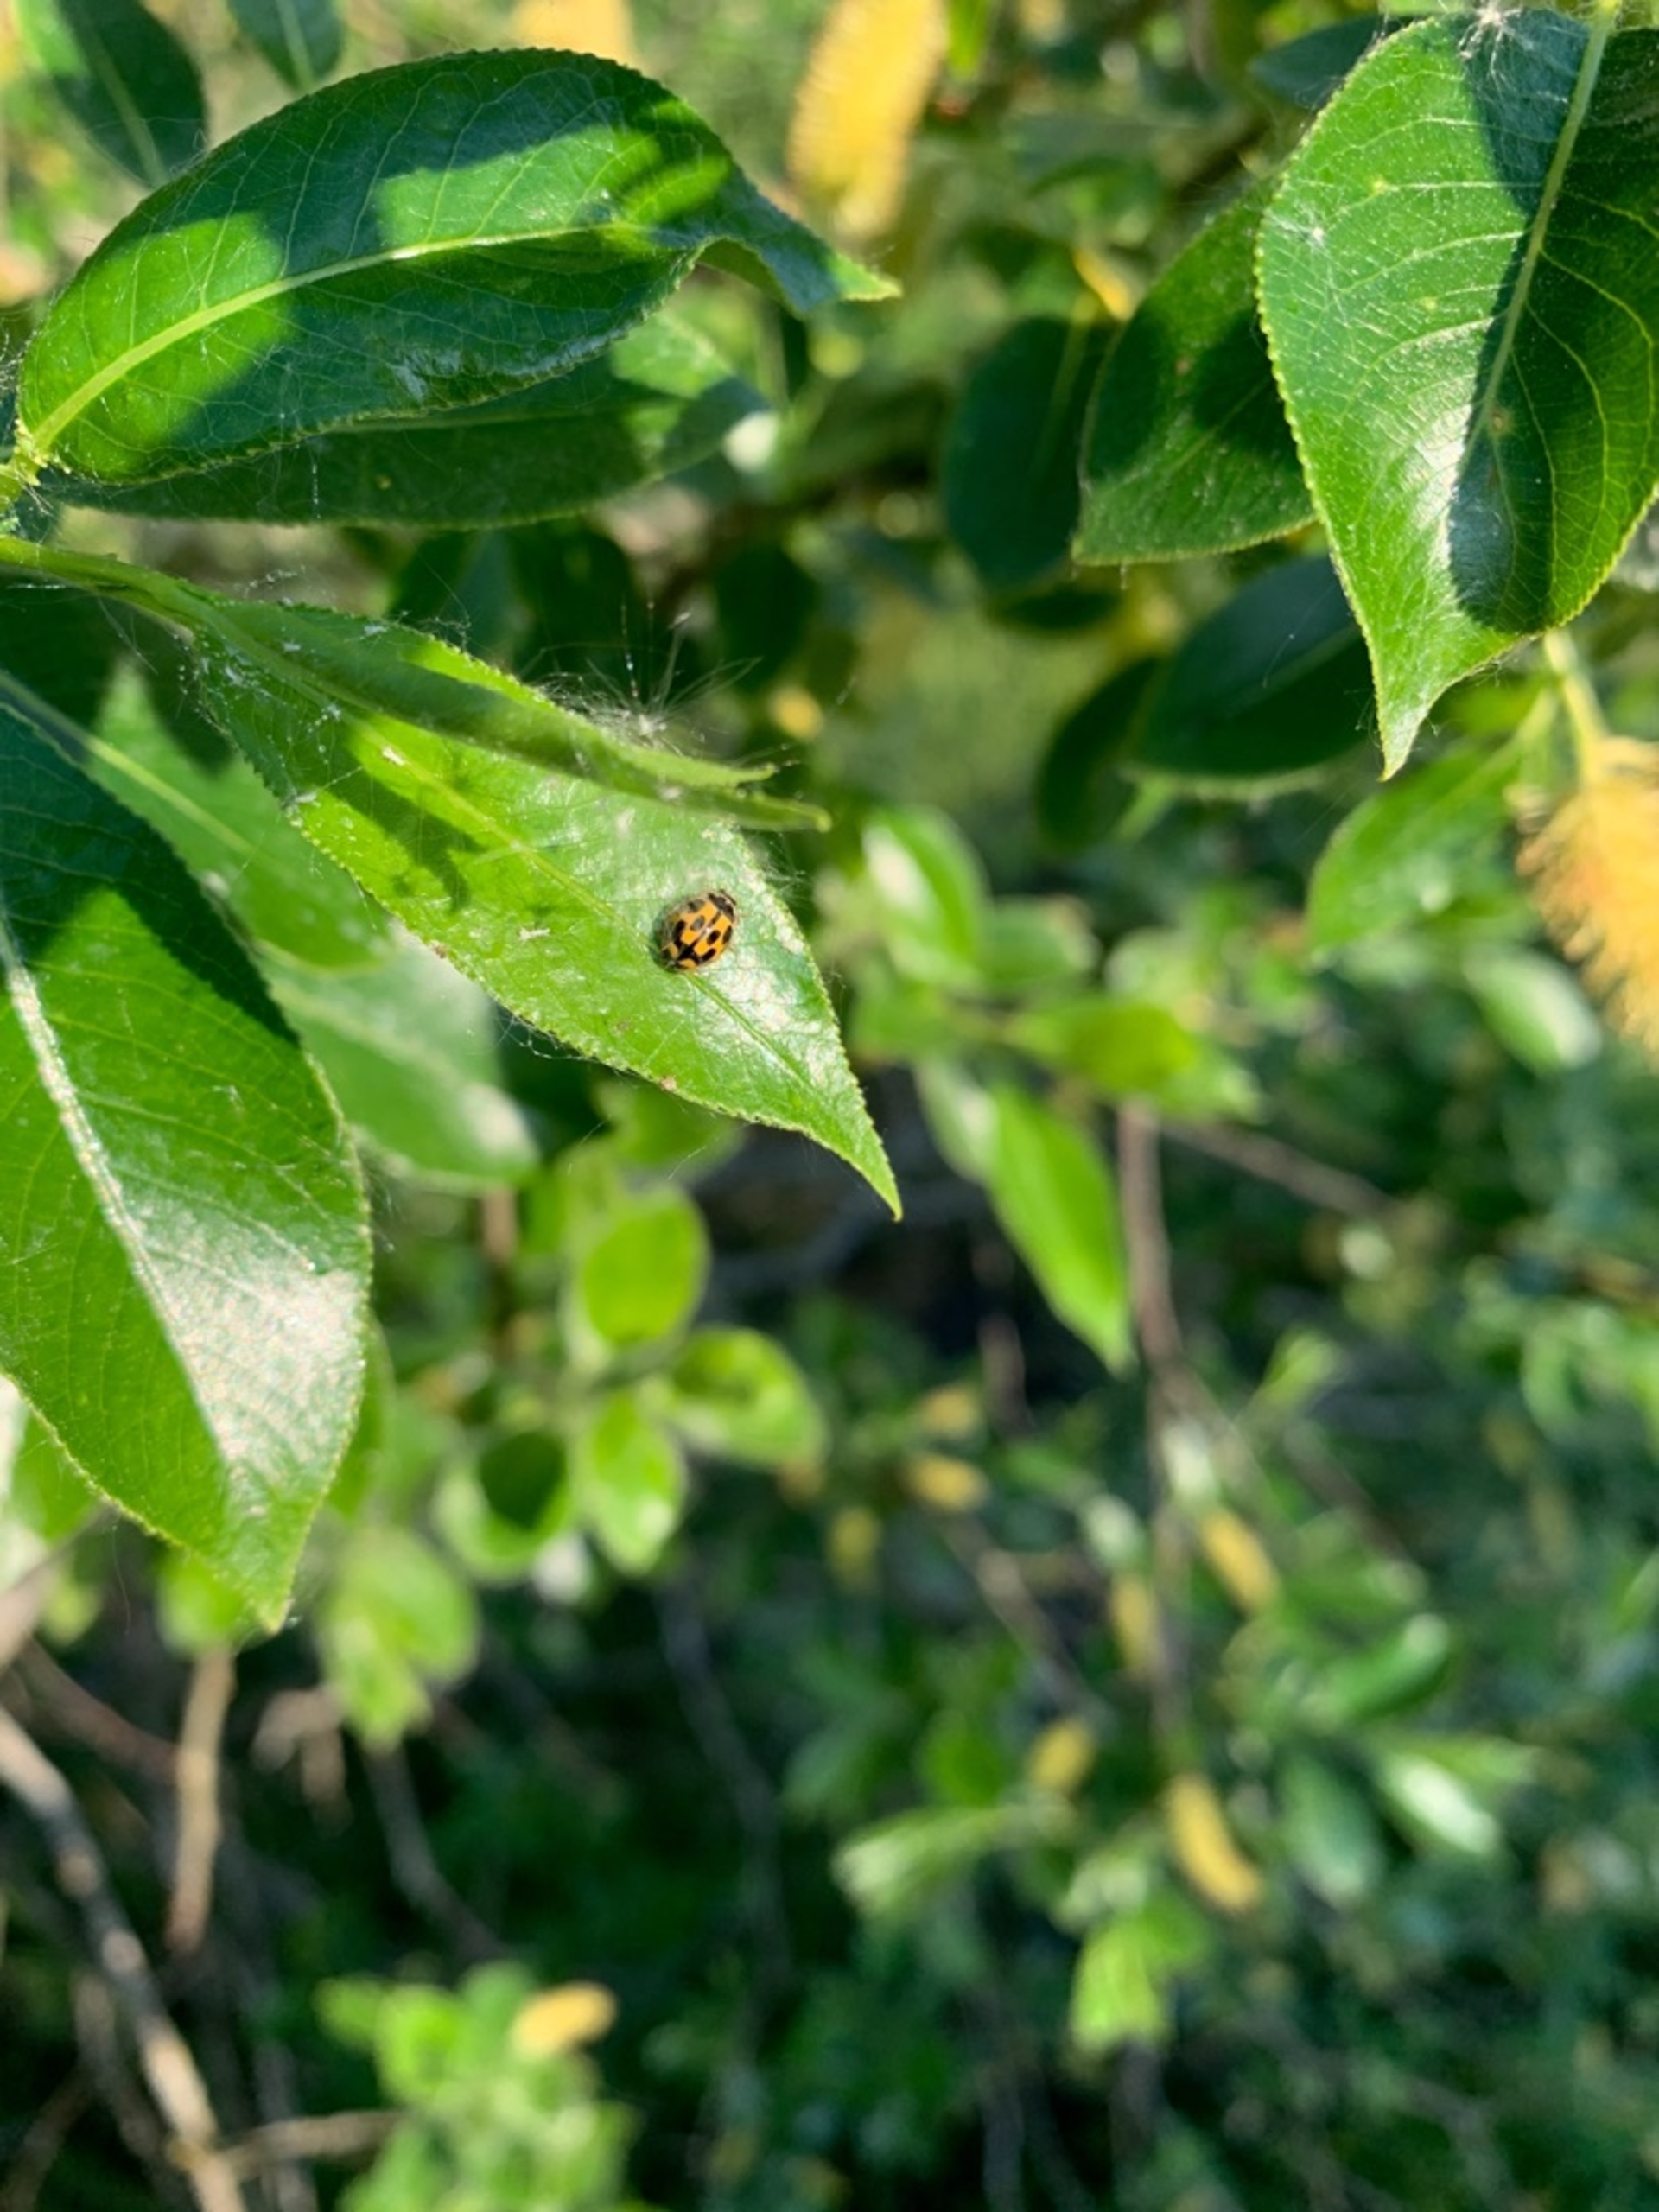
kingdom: Animalia
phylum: Arthropoda
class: Insecta
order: Coleoptera
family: Coccinellidae
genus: Propylaea
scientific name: Propylaea quatuordecimpunctata
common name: Skakbræt
